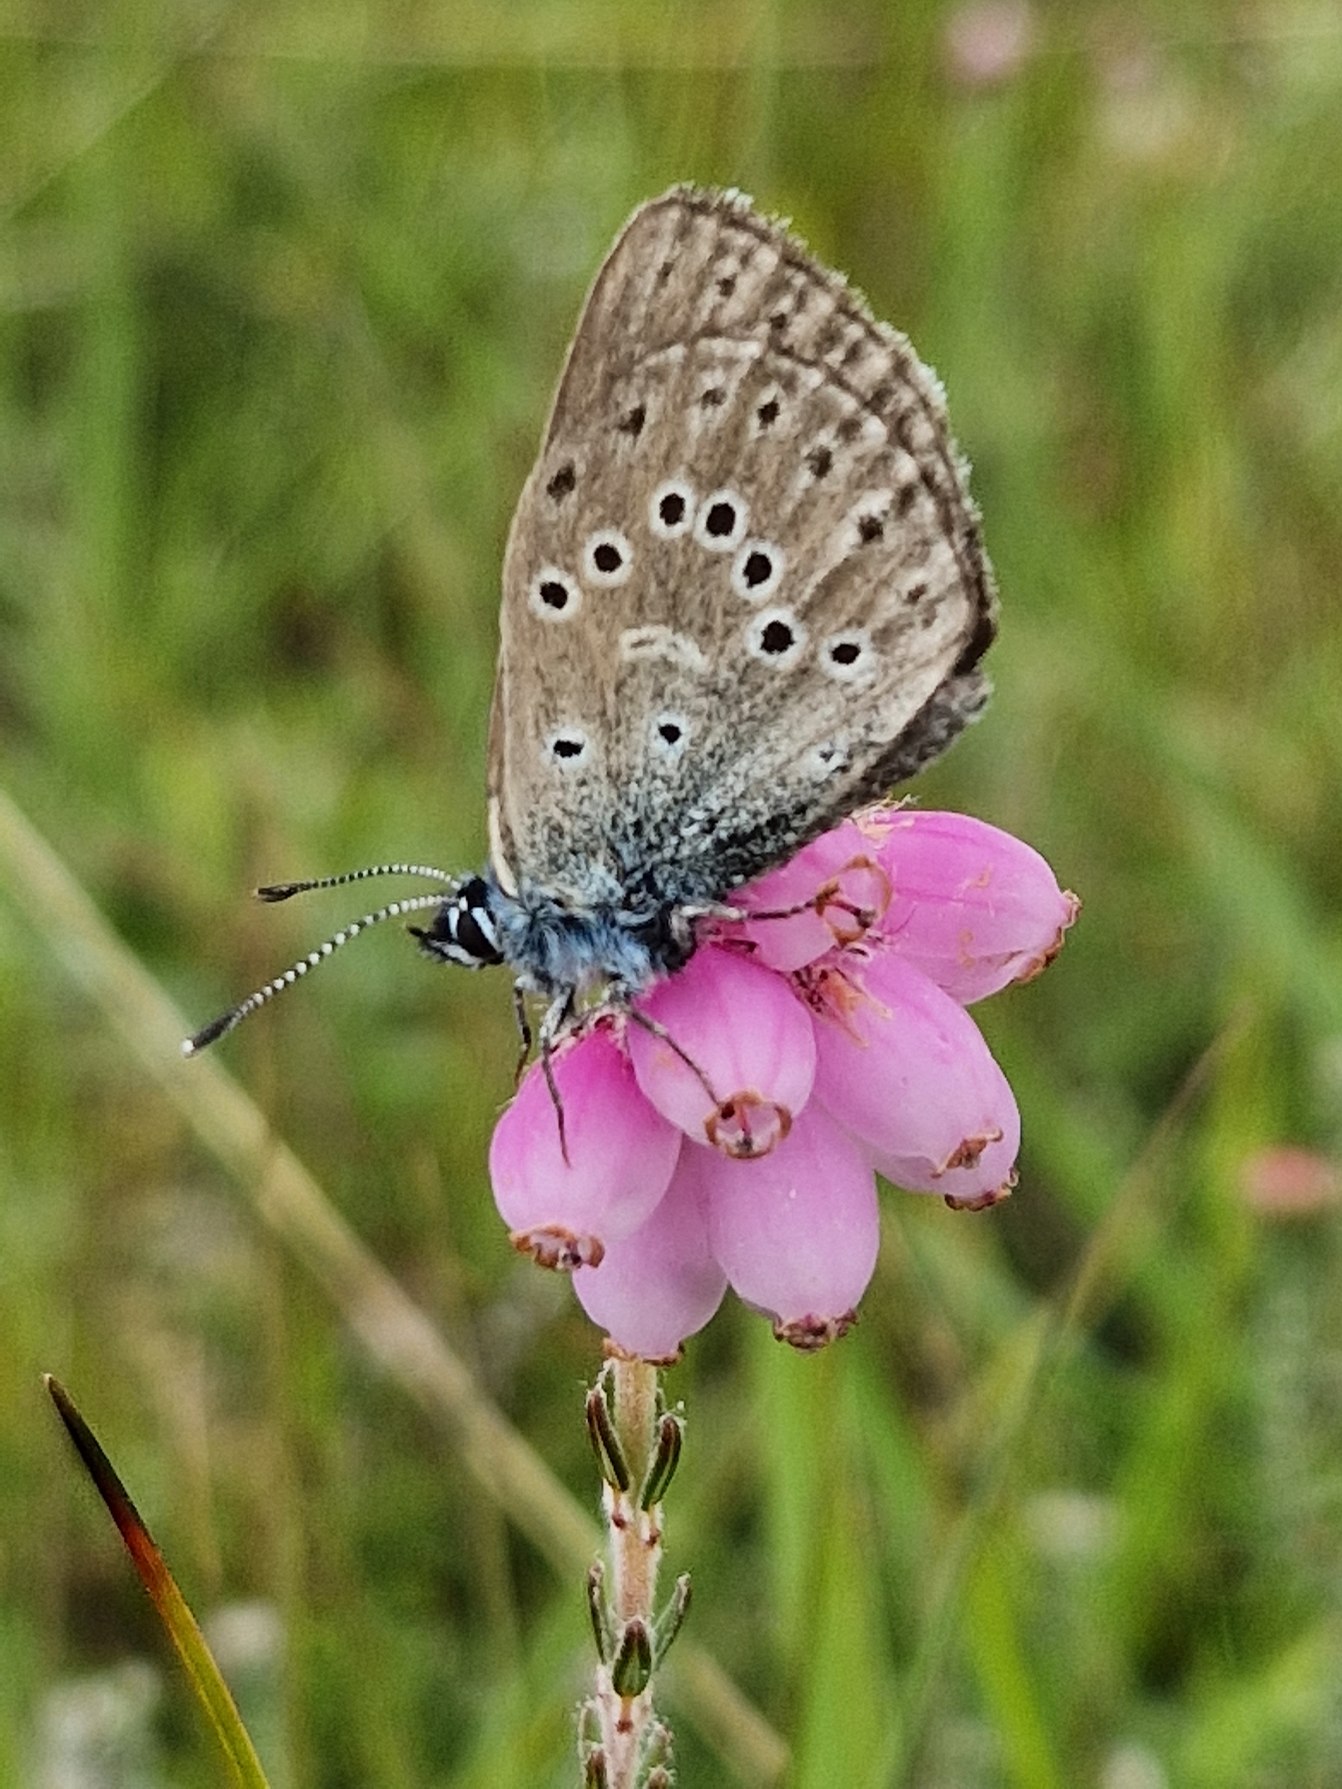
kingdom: Animalia
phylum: Arthropoda
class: Insecta
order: Lepidoptera
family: Lycaenidae
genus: Maculinea
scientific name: Maculinea alcon
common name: Ensianblåfugl
